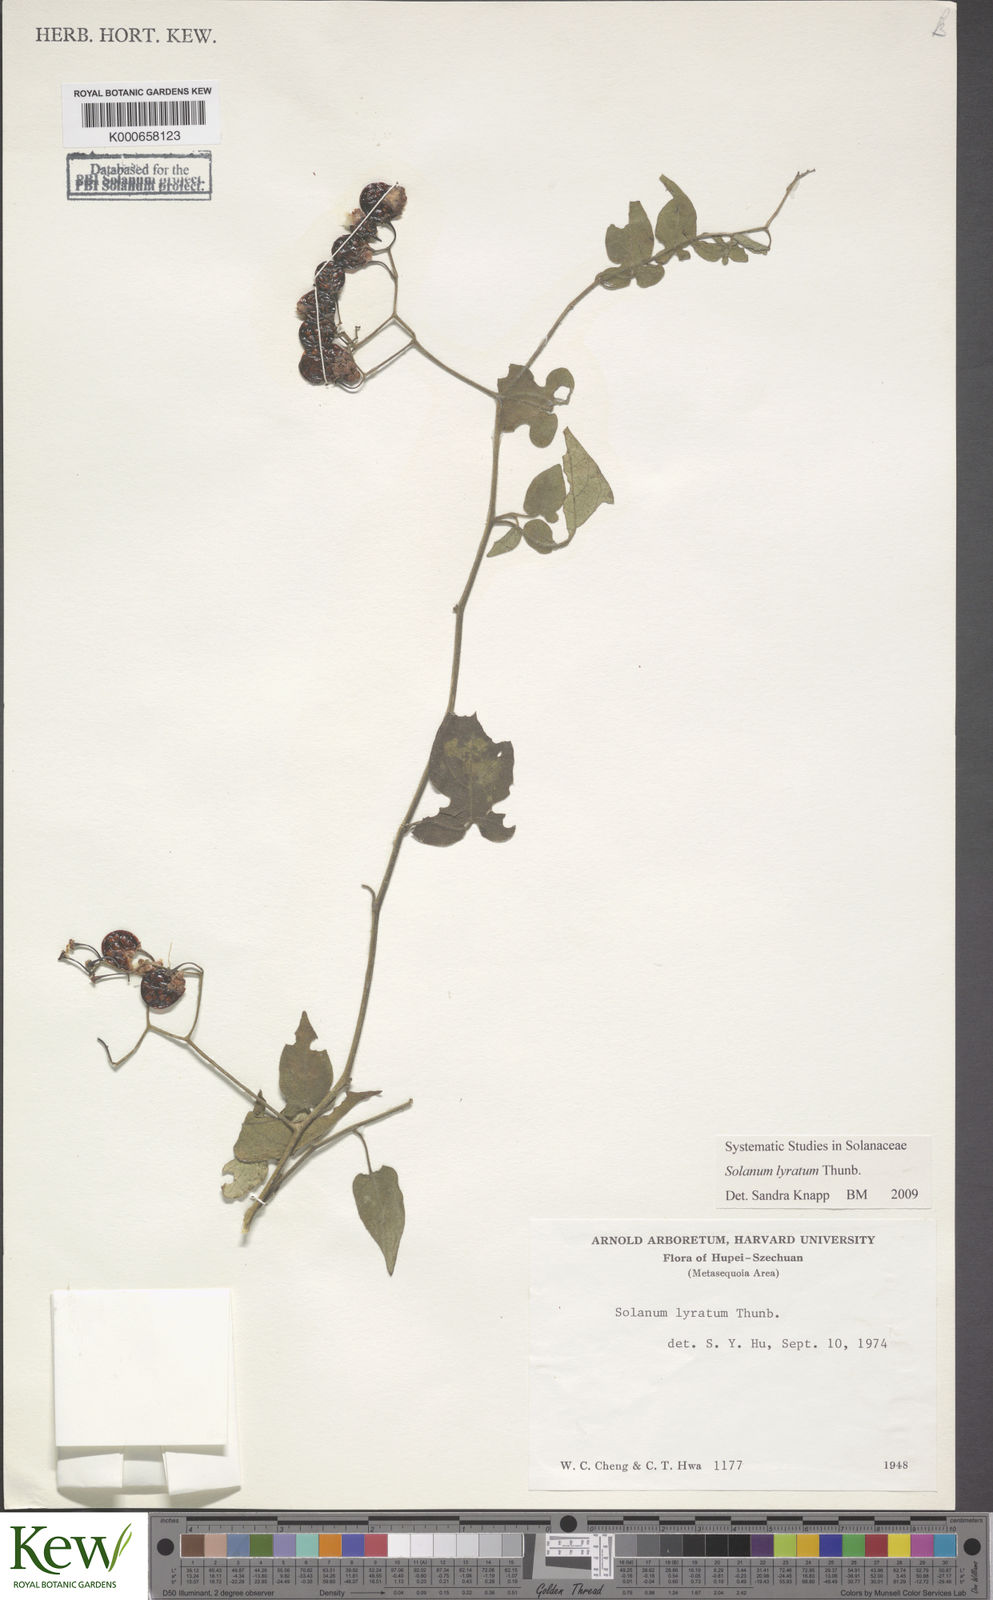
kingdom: Plantae
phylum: Tracheophyta
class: Magnoliopsida
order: Solanales
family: Solanaceae
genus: Solanum
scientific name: Solanum lyratum
